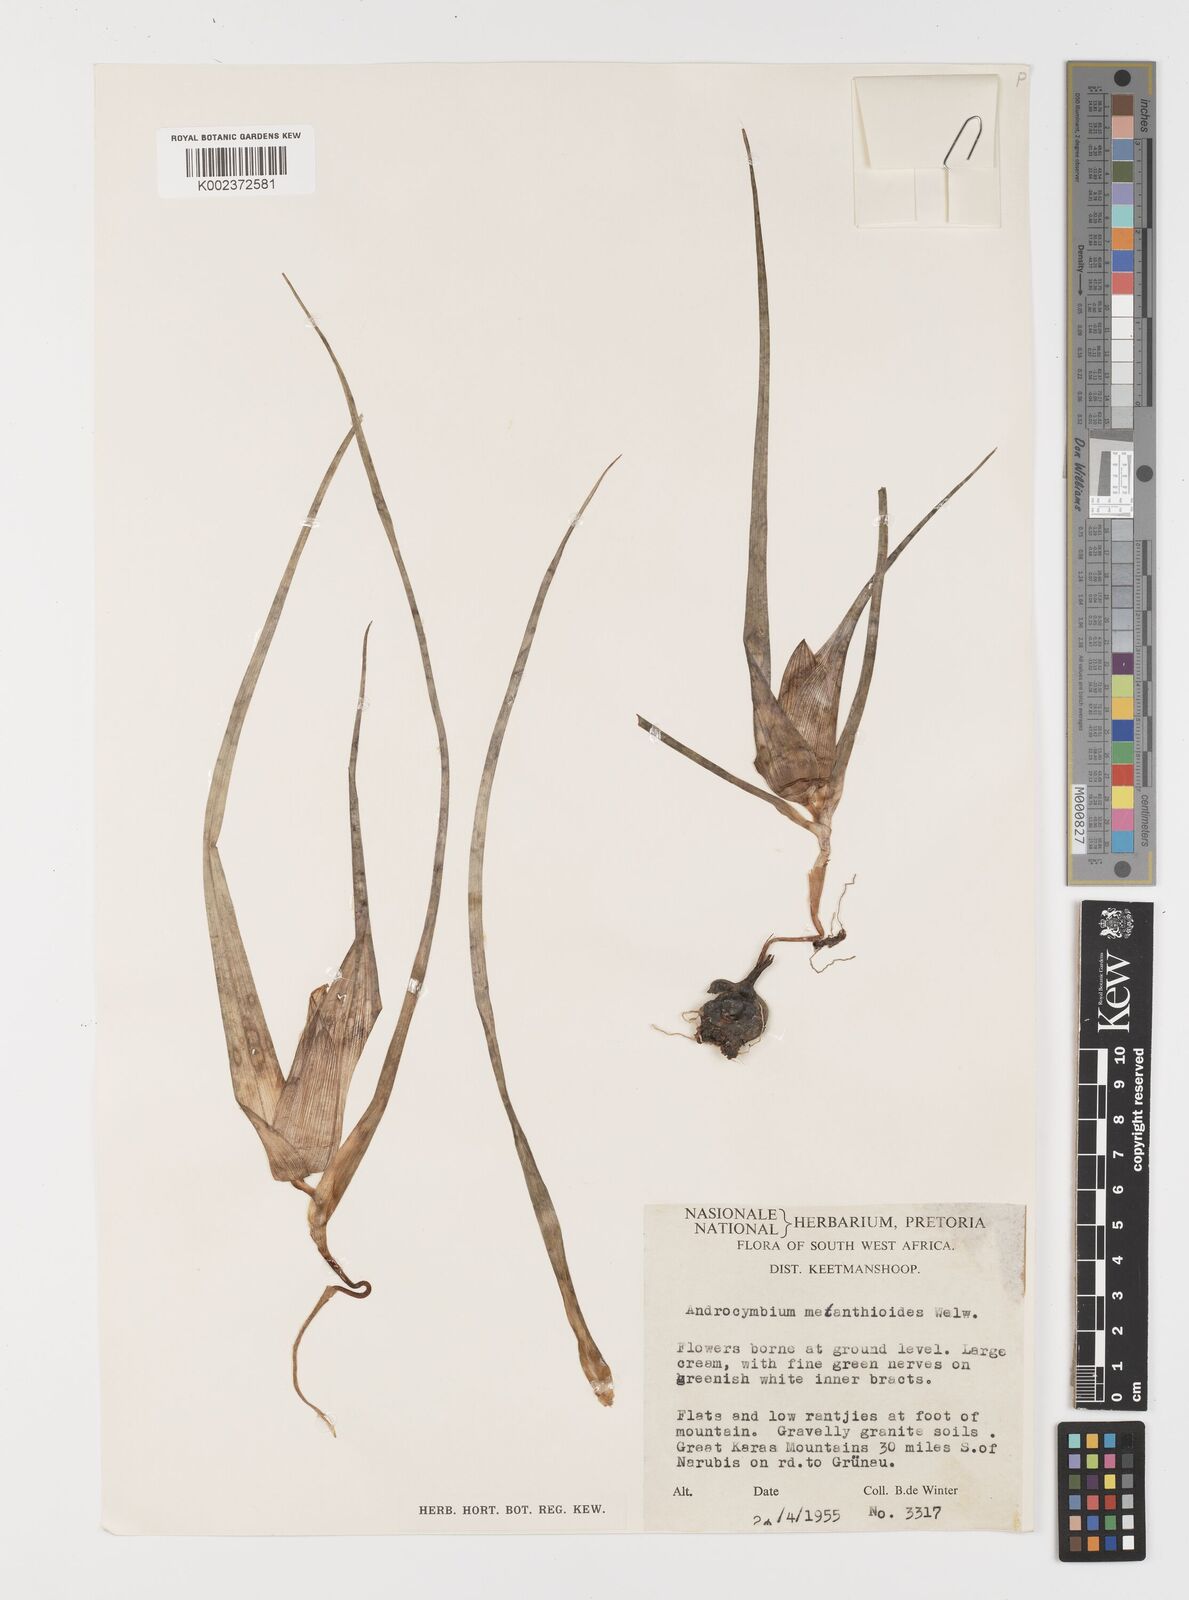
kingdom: Plantae
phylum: Tracheophyta
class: Liliopsida
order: Liliales
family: Colchicaceae
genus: Colchicum
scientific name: Colchicum melanthioides
